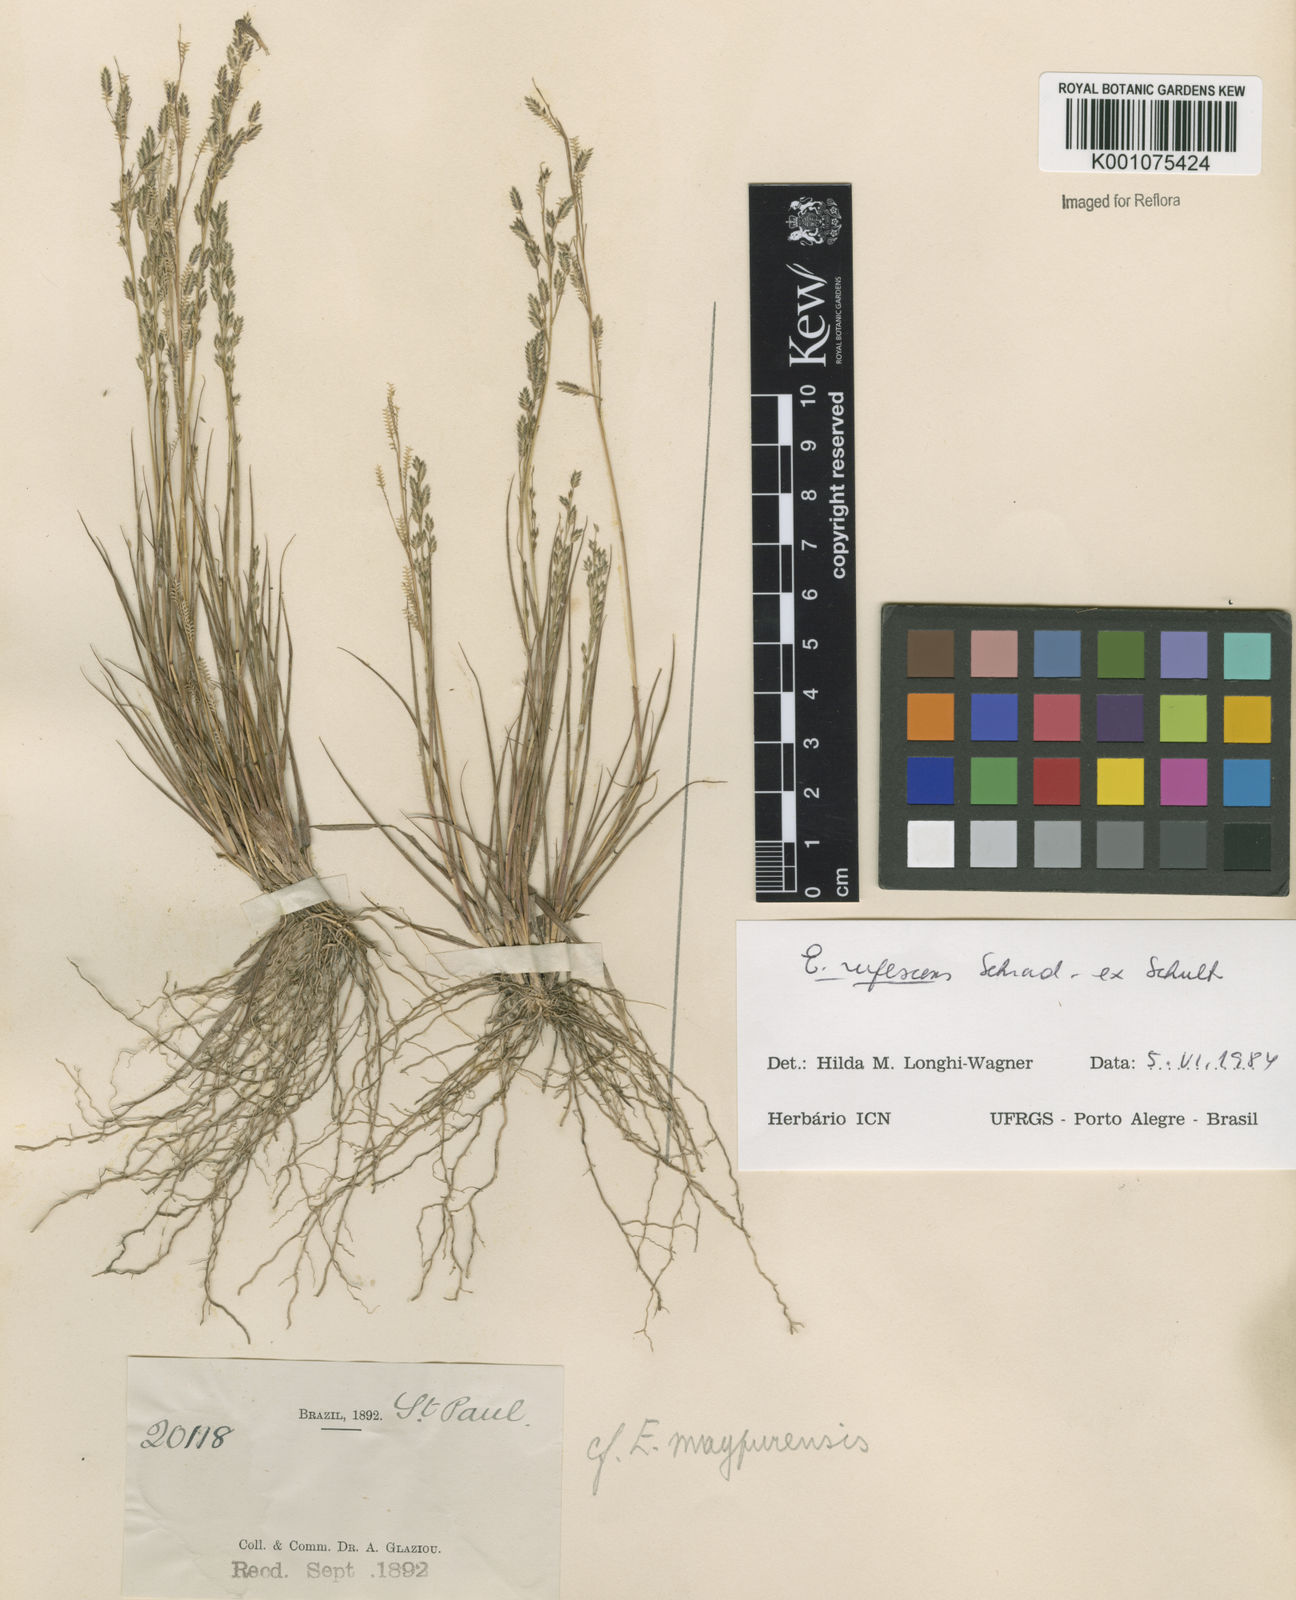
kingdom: Plantae
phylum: Tracheophyta
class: Liliopsida
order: Poales
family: Poaceae
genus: Eragrostis
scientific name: Eragrostis rufescens
